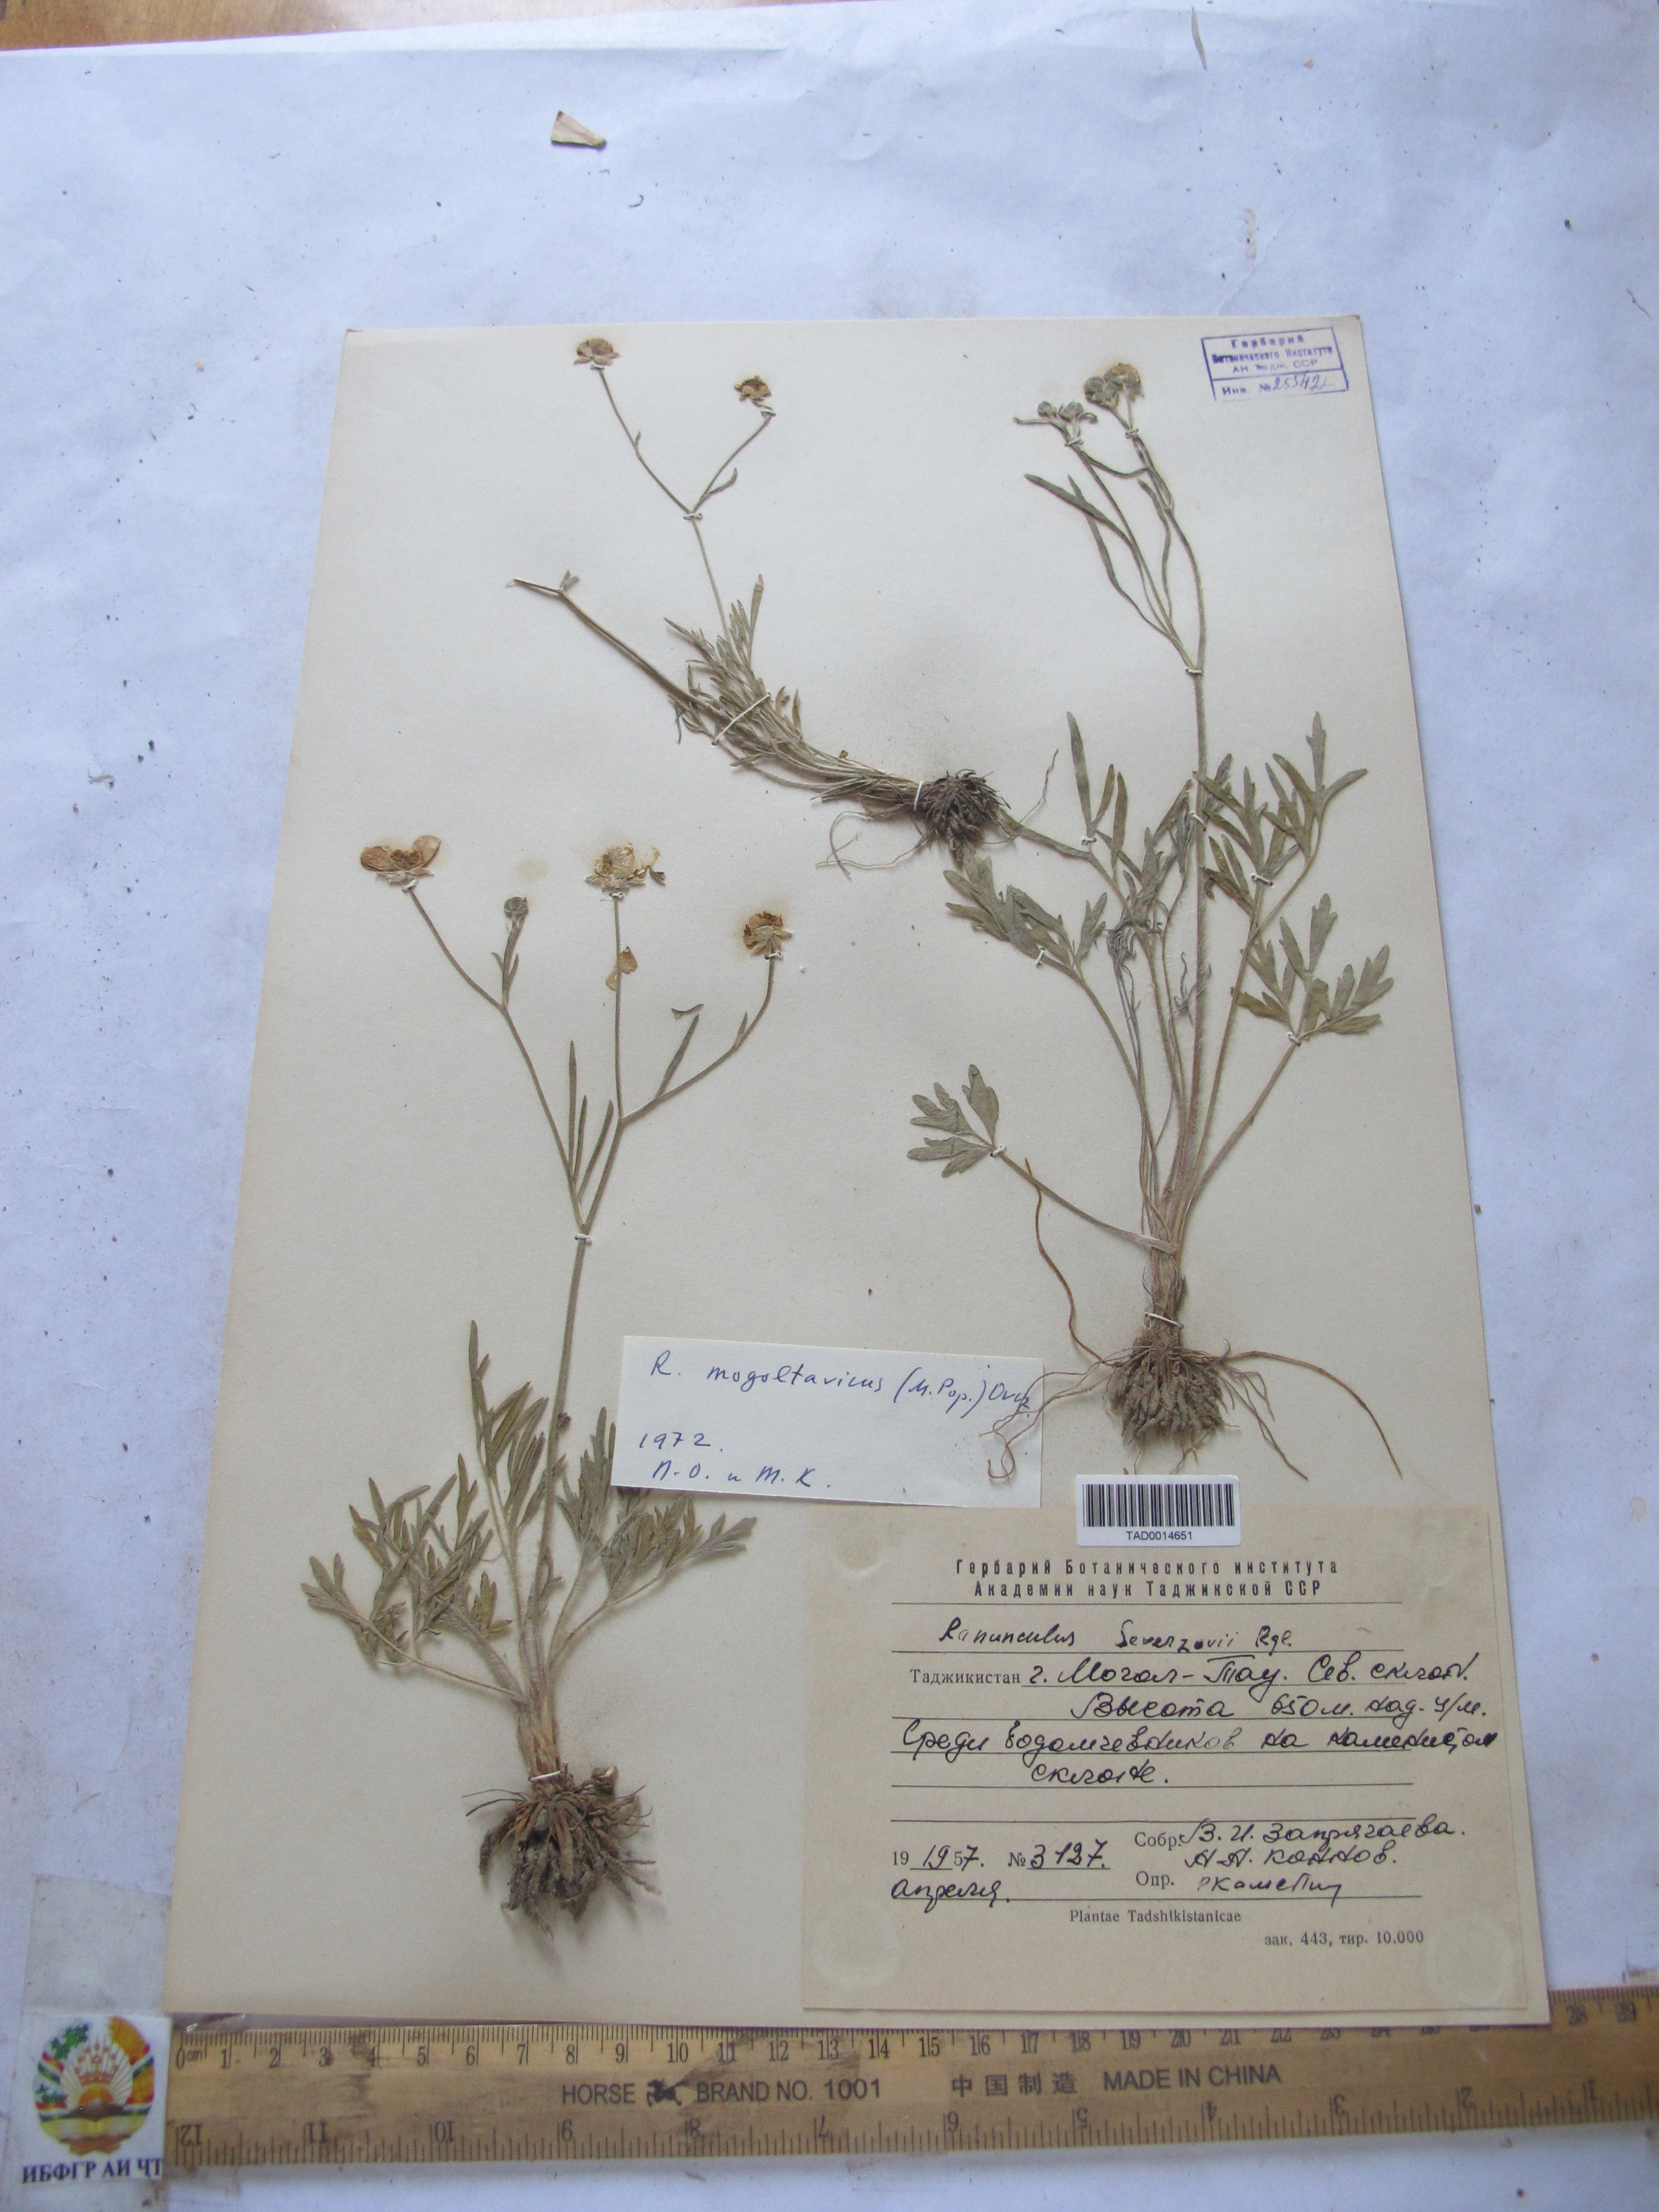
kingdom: Plantae
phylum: Tracheophyta
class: Magnoliopsida
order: Ranunculales
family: Ranunculaceae
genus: Ranunculus
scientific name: Ranunculus
